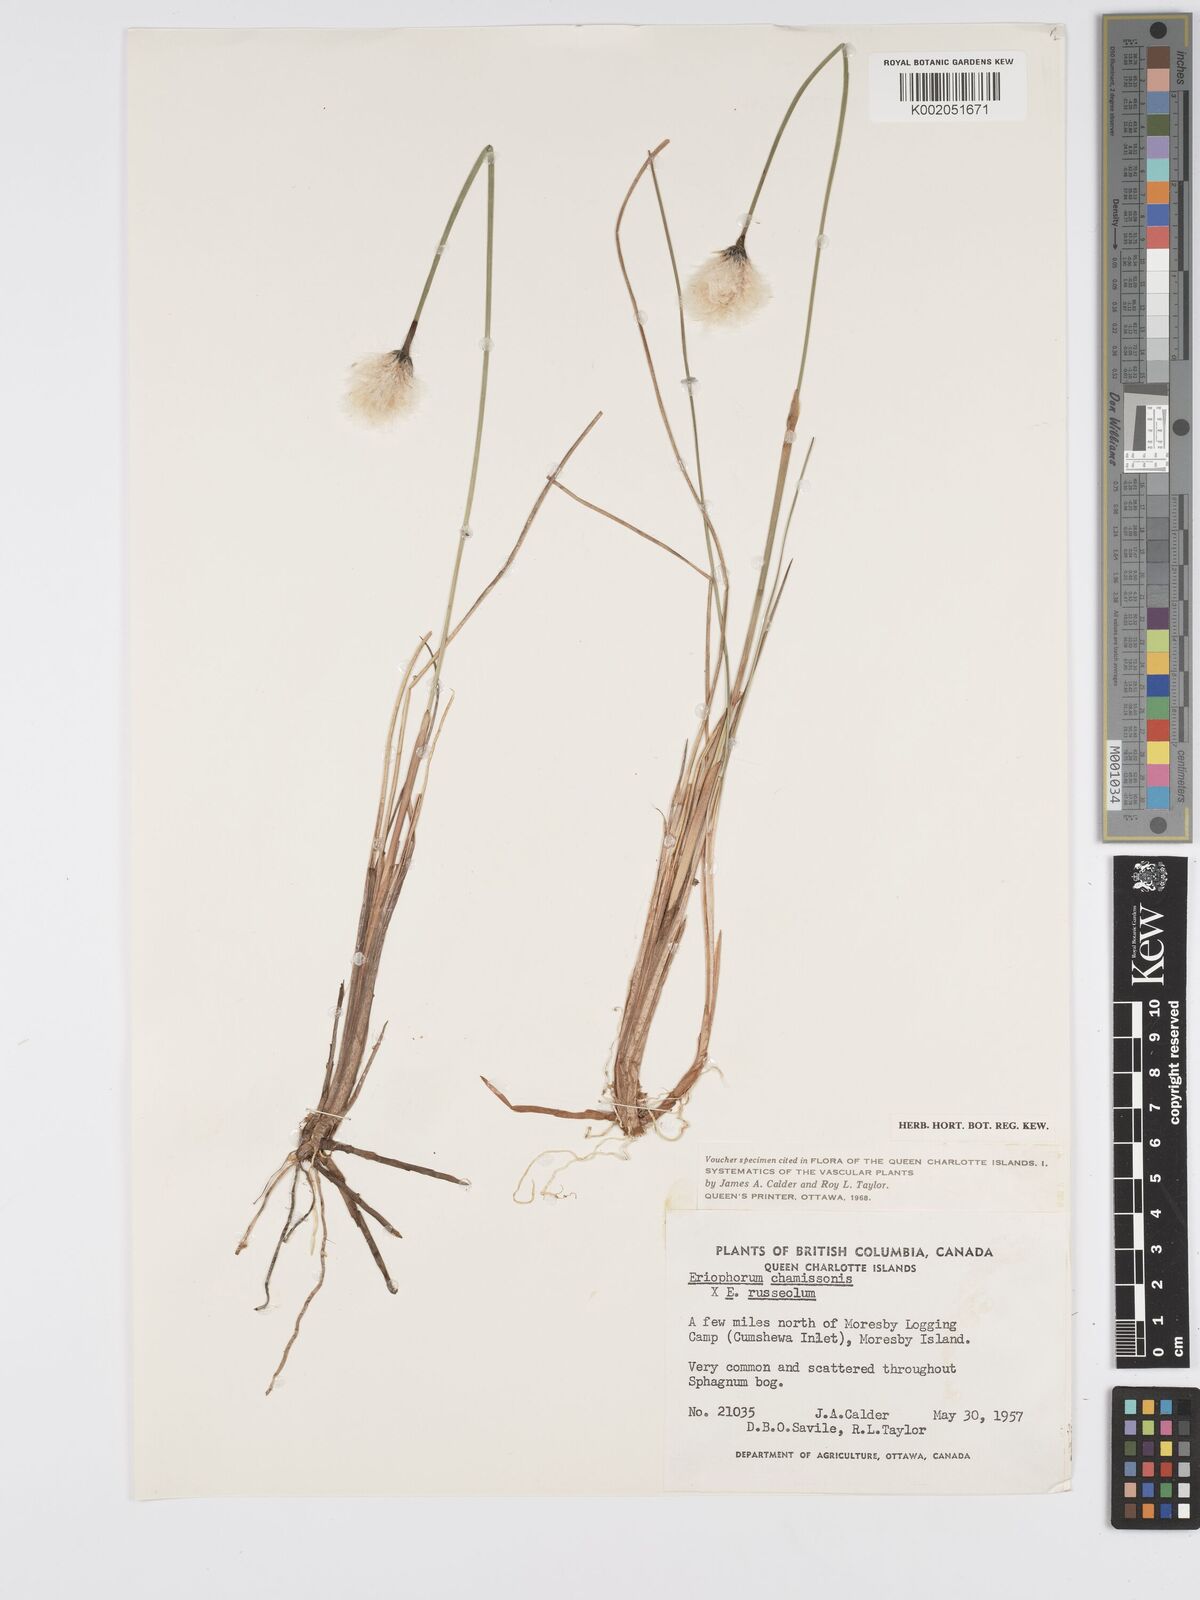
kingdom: Plantae
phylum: Tracheophyta
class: Liliopsida
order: Poales
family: Cyperaceae
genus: Eriophorum
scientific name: Eriophorum chamissonis
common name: Chamisso's cottongrass
